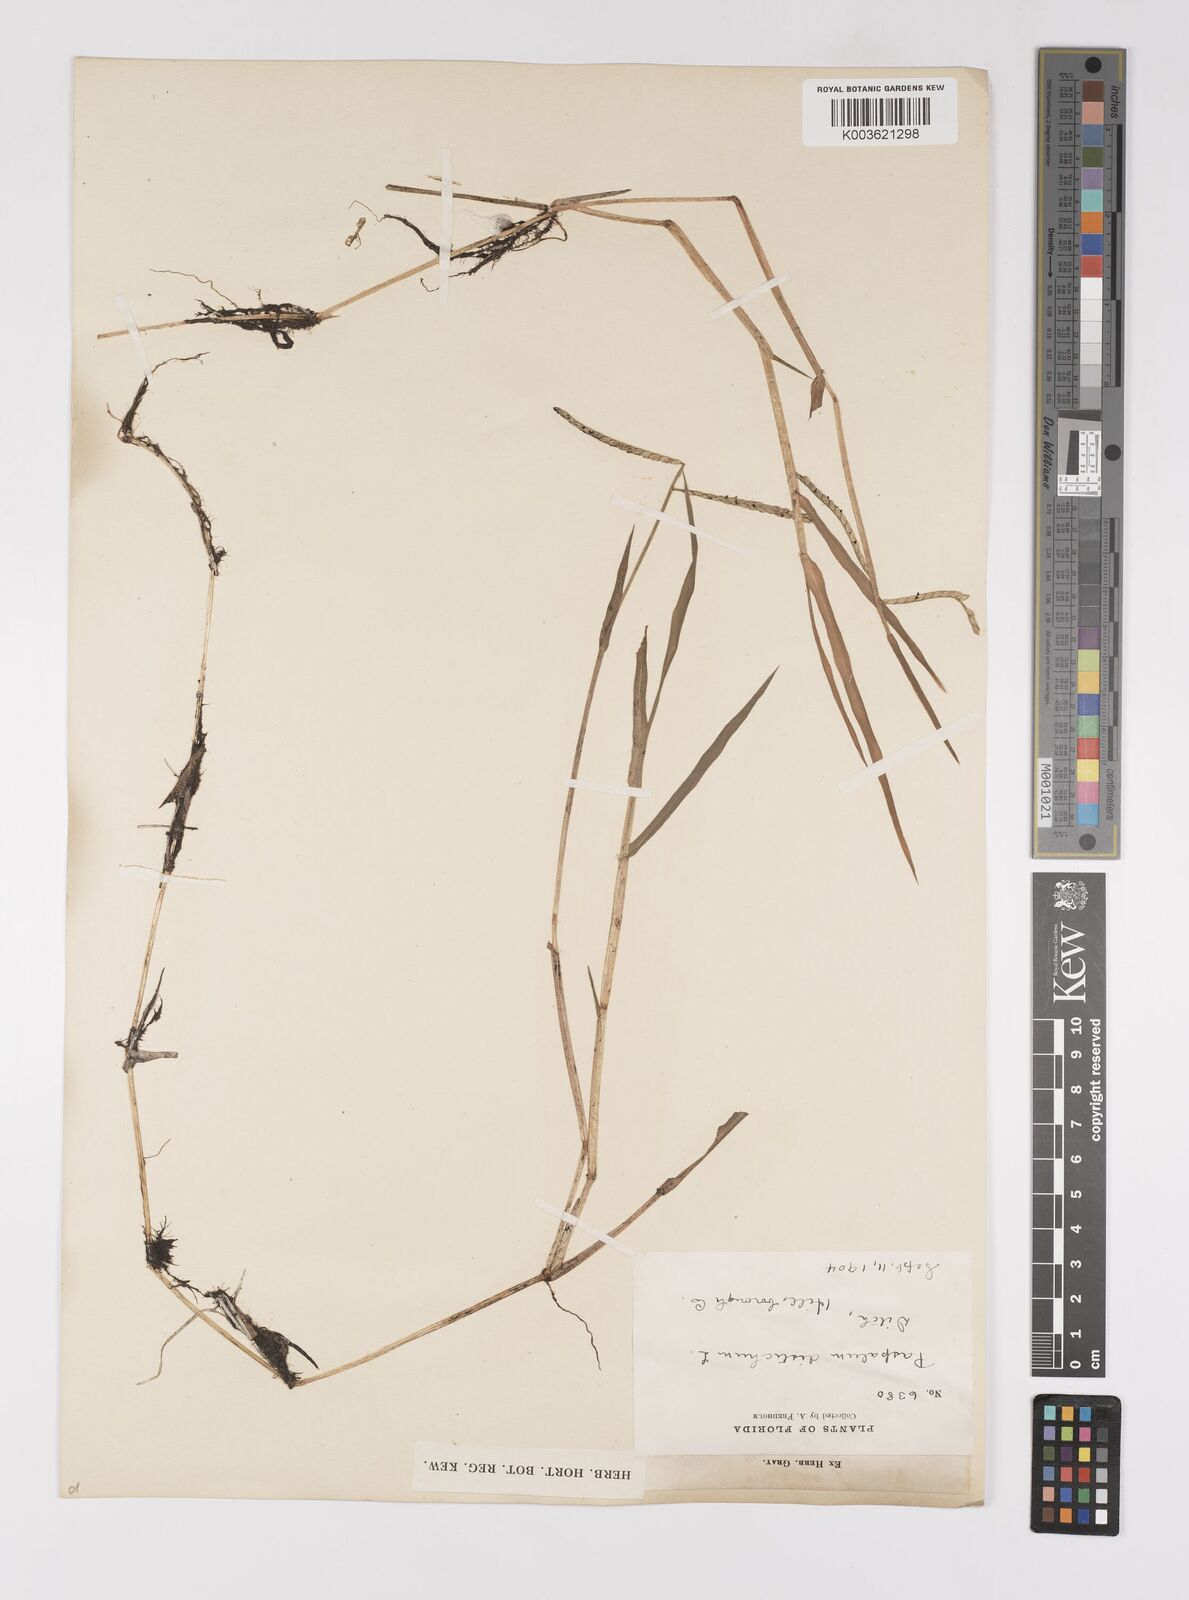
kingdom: Plantae
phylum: Tracheophyta
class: Liliopsida
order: Poales
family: Poaceae
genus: Paspalum
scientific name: Paspalum distichum
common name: Knotgrass
